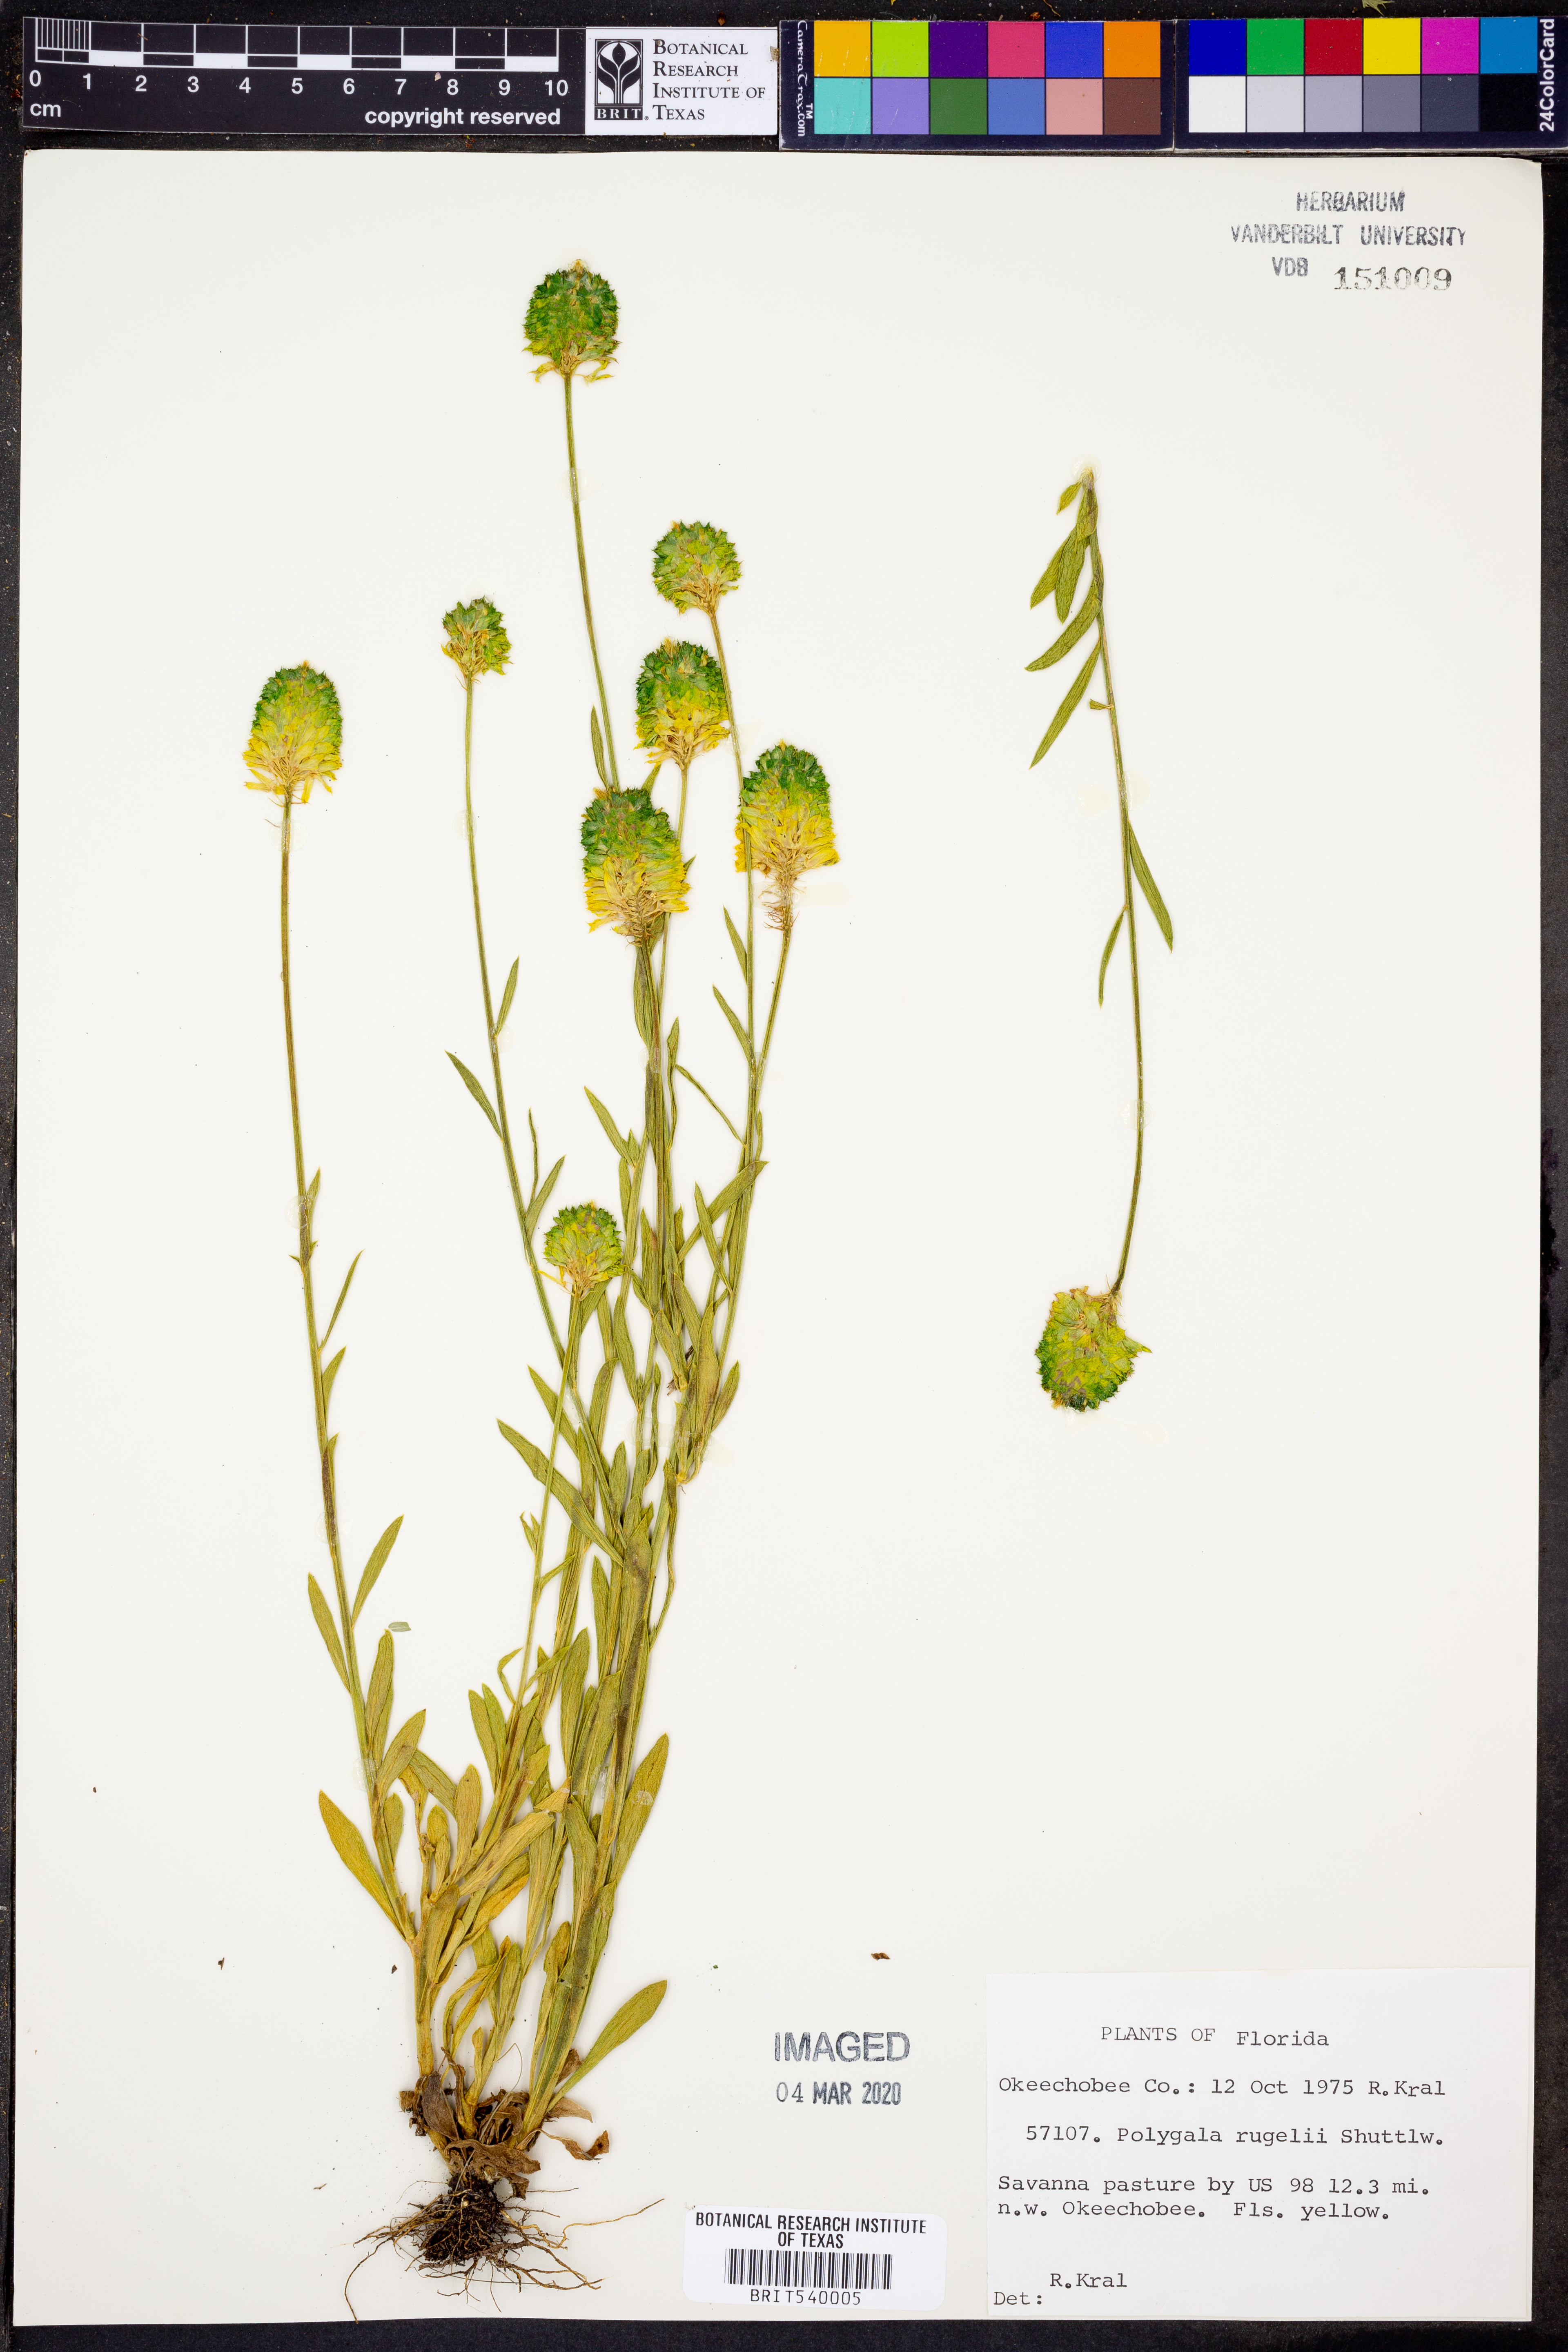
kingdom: Plantae
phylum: Tracheophyta
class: Magnoliopsida
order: Fabales
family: Polygalaceae
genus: Polygala
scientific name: Polygala rugelii
